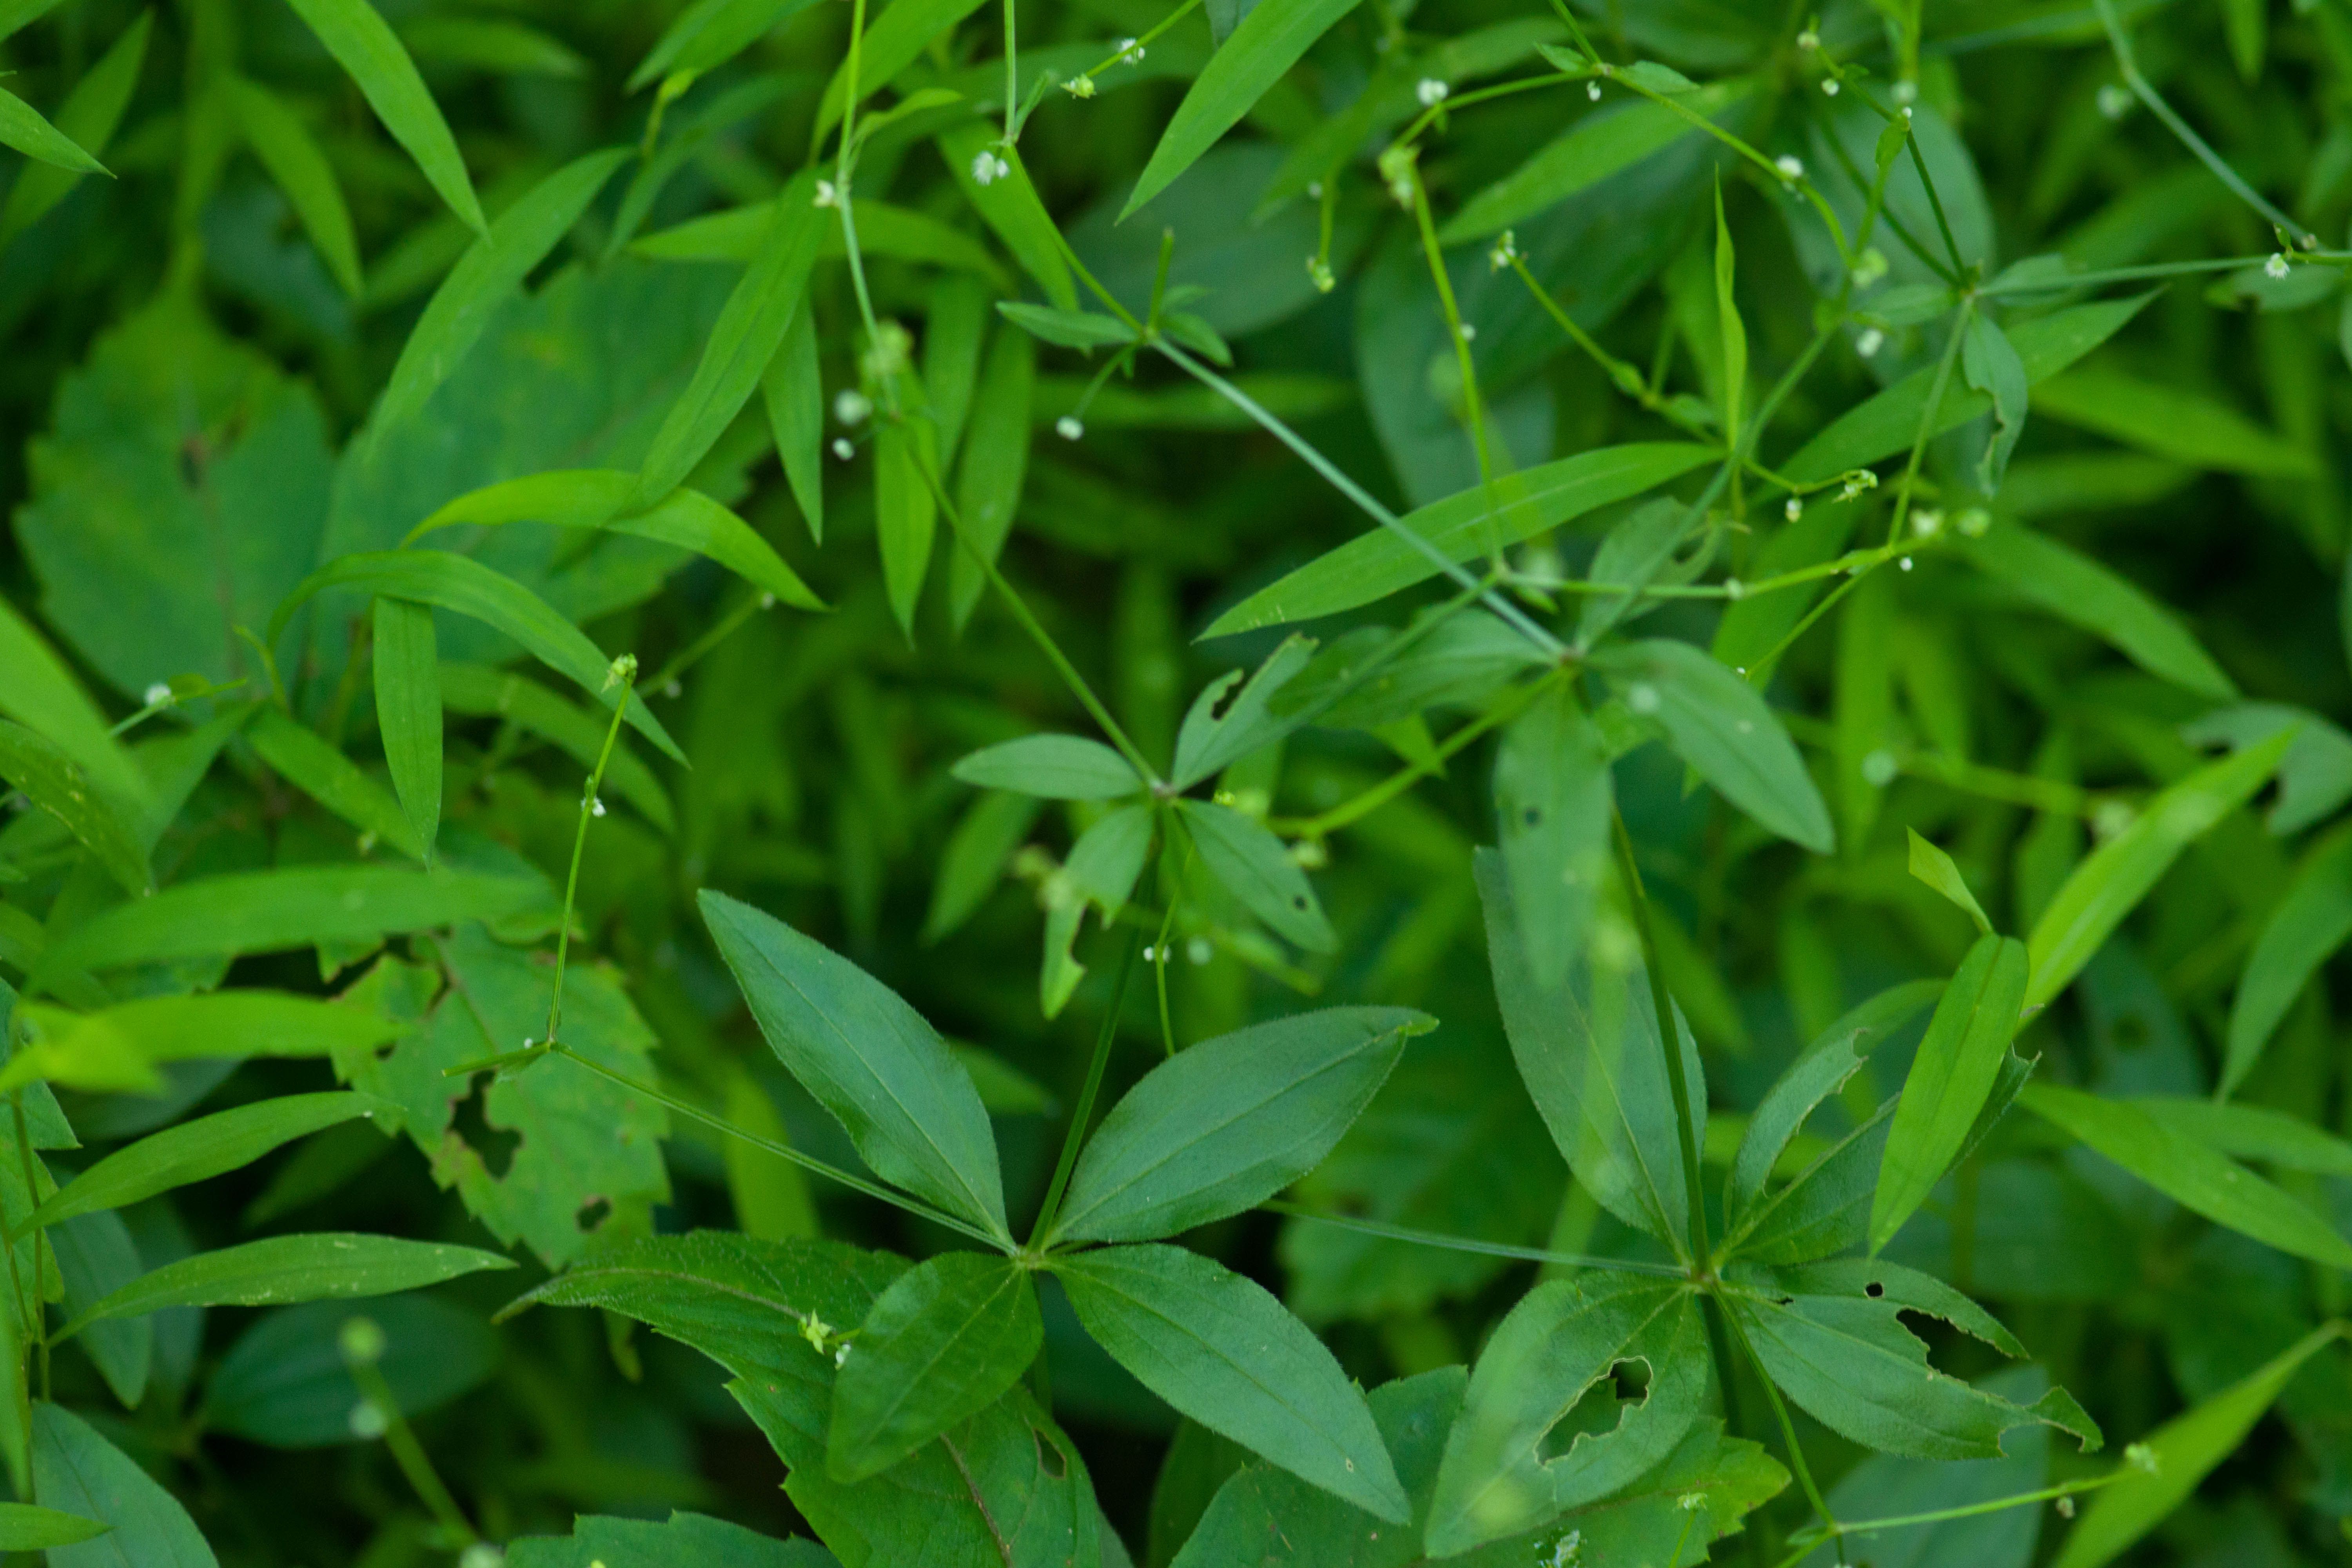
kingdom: Plantae
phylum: Tracheophyta
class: Magnoliopsida
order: Gentianales
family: Rubiaceae
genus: Galium
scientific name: Galium circaezans
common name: Forest bedstraw
